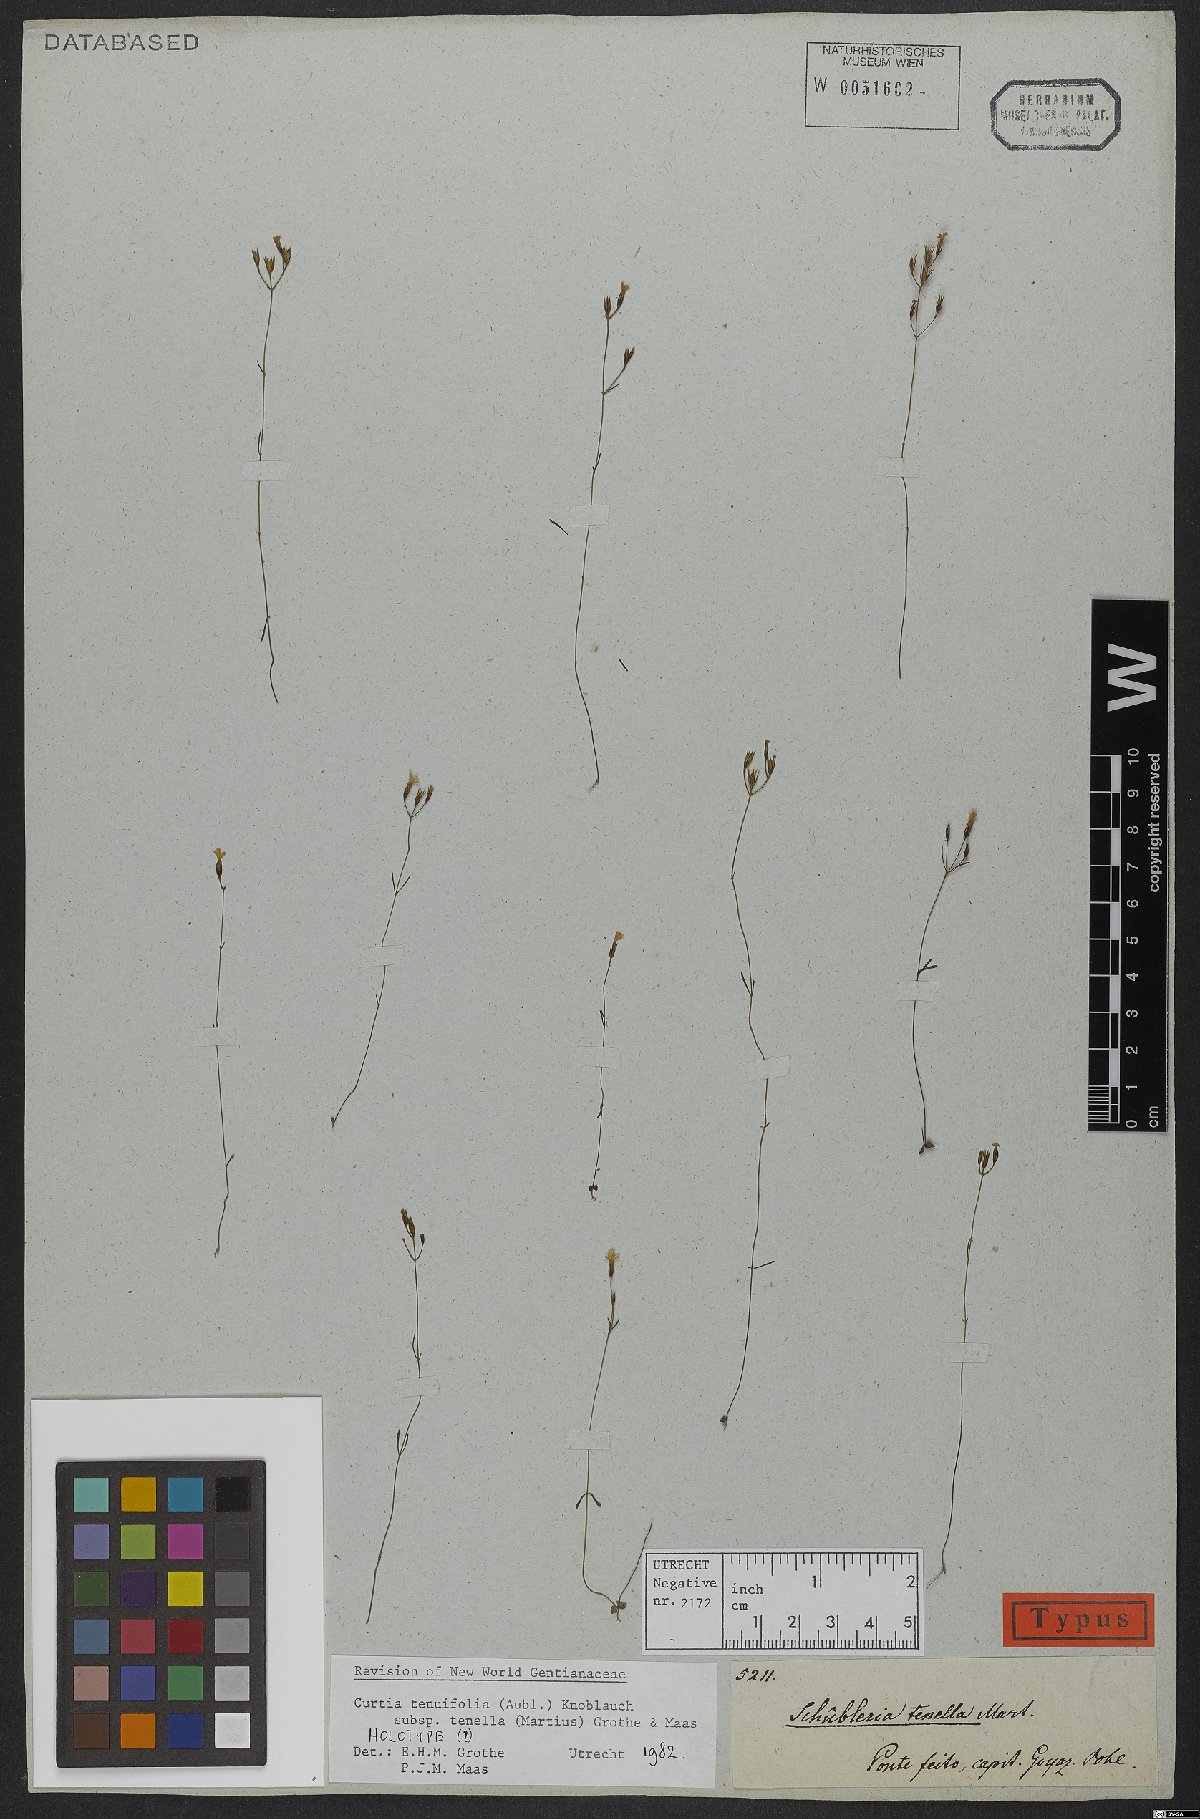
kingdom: Plantae
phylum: Tracheophyta
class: Magnoliopsida
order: Gentianales
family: Gentianaceae
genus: Curtia
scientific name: Curtia tenella
